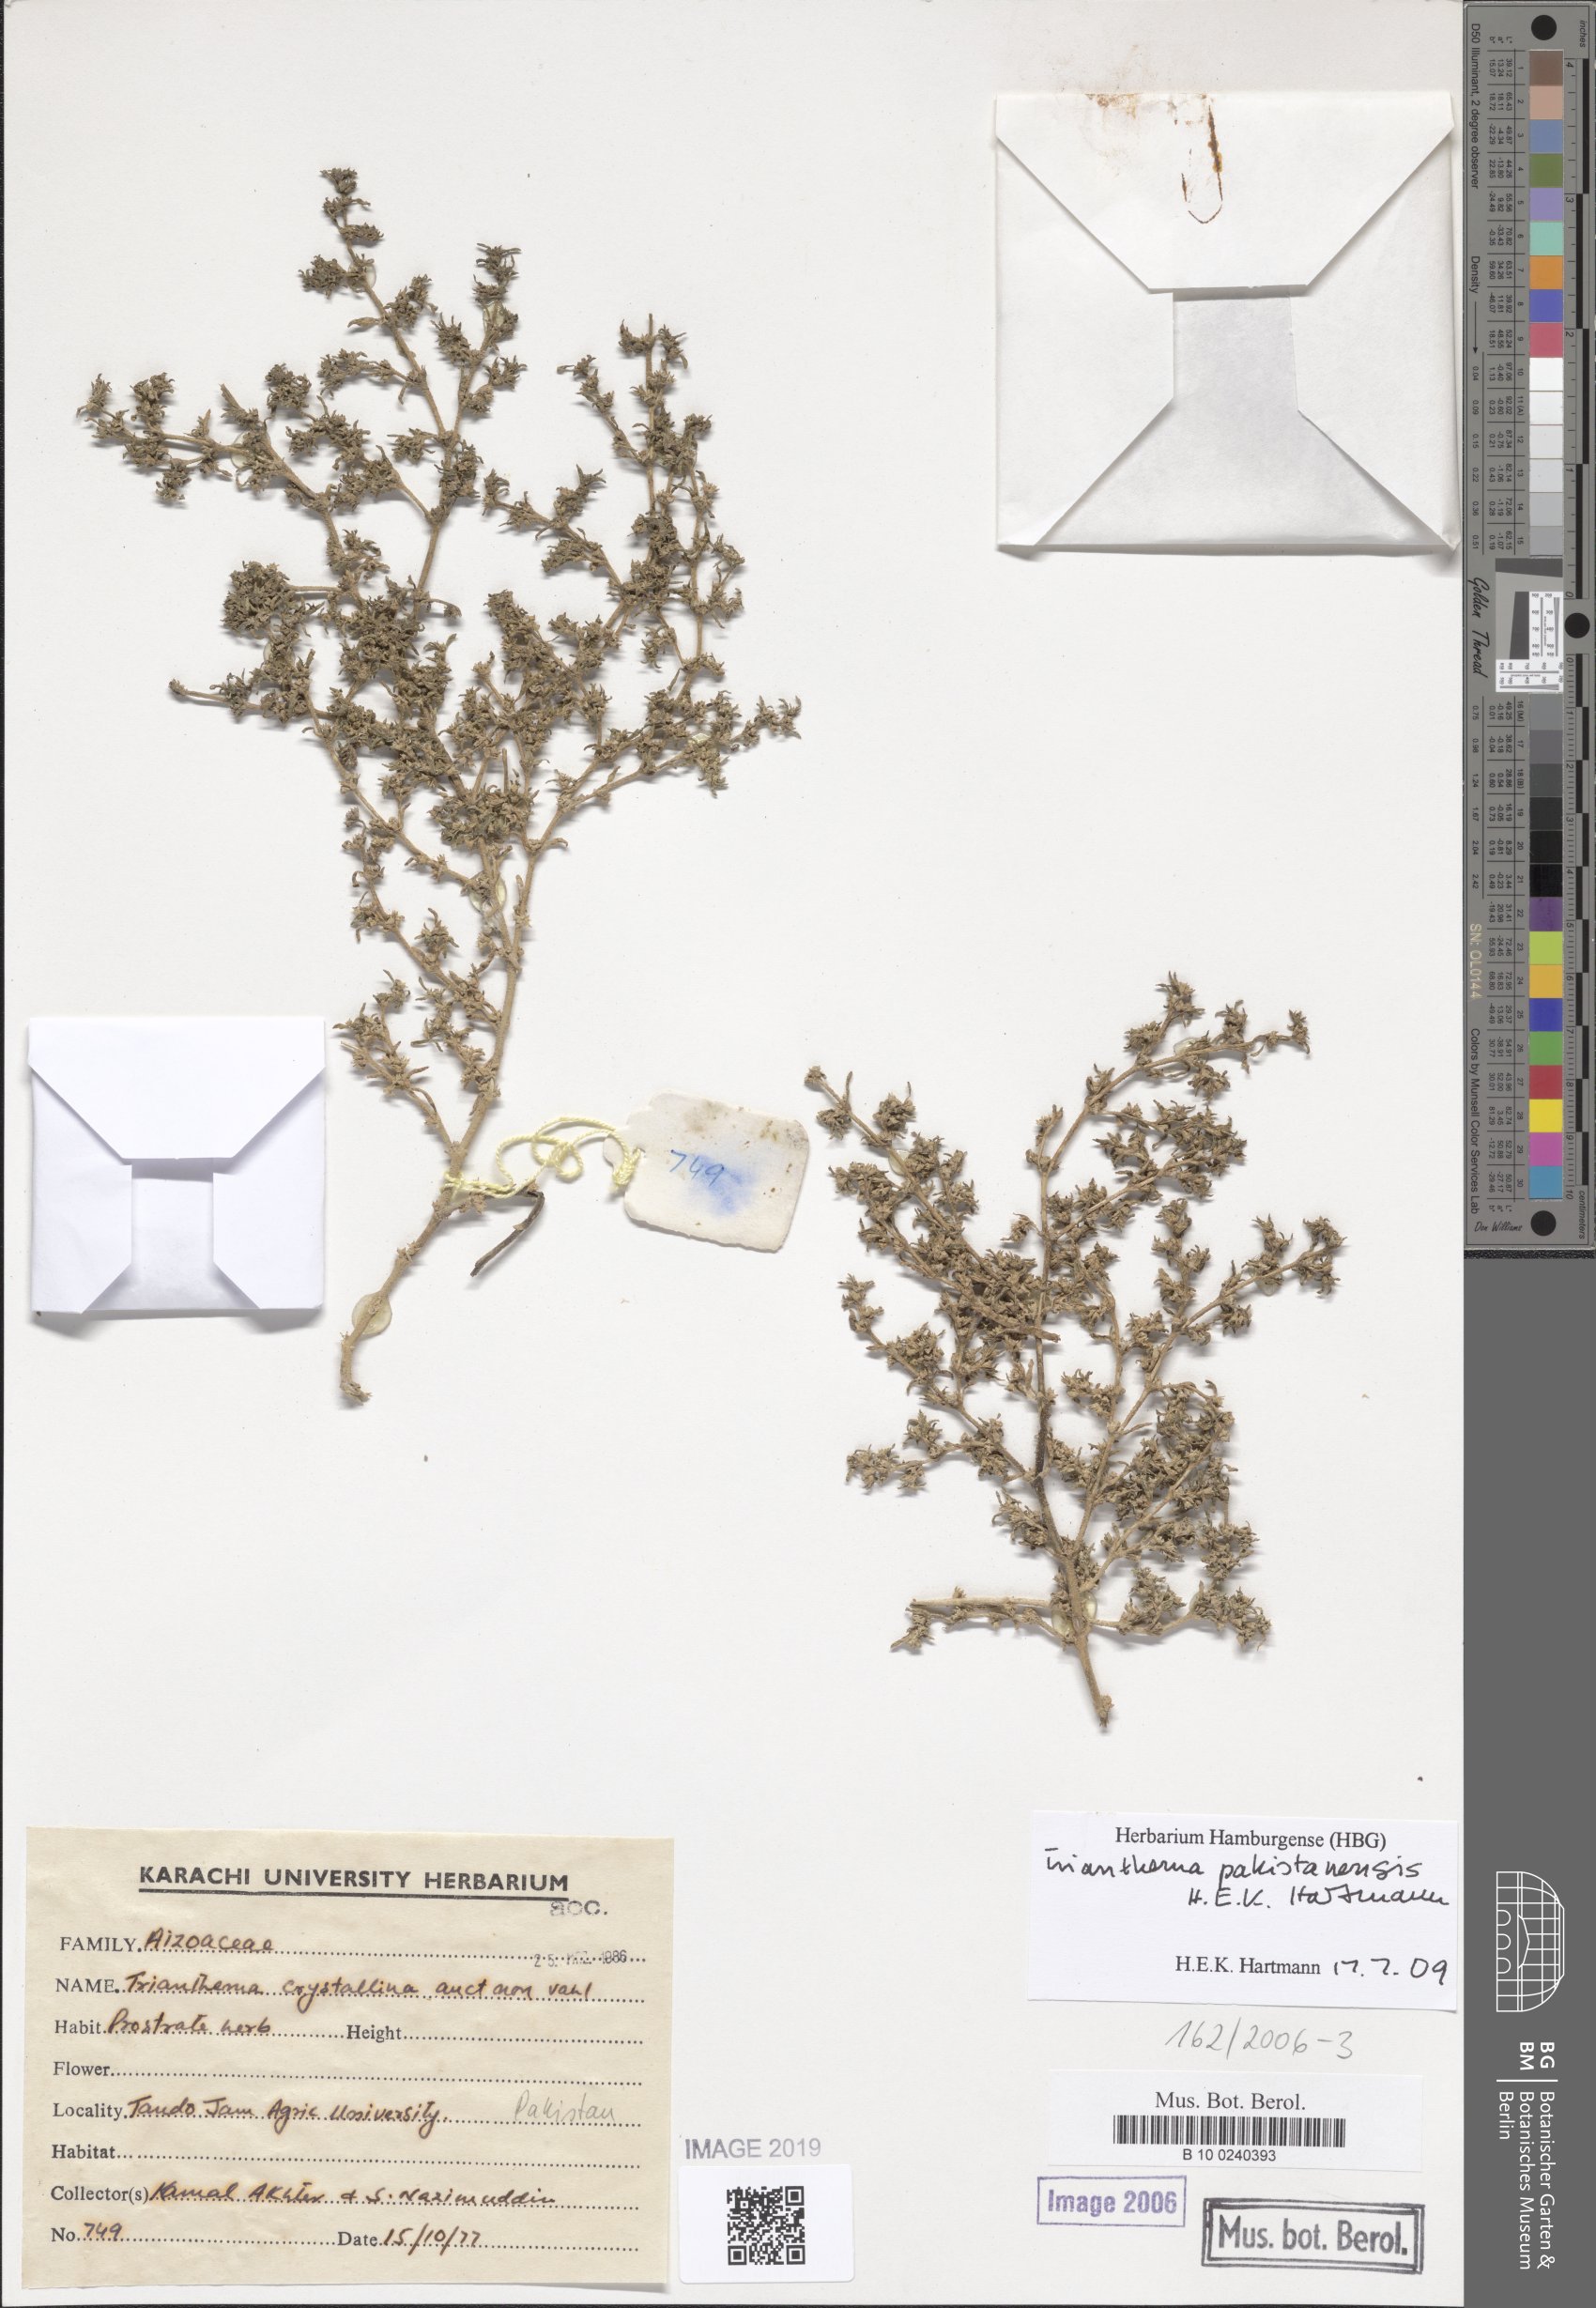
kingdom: Plantae
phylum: Tracheophyta
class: Magnoliopsida
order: Caryophyllales
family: Aizoaceae
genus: Trianthema
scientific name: Trianthema crystallinum
